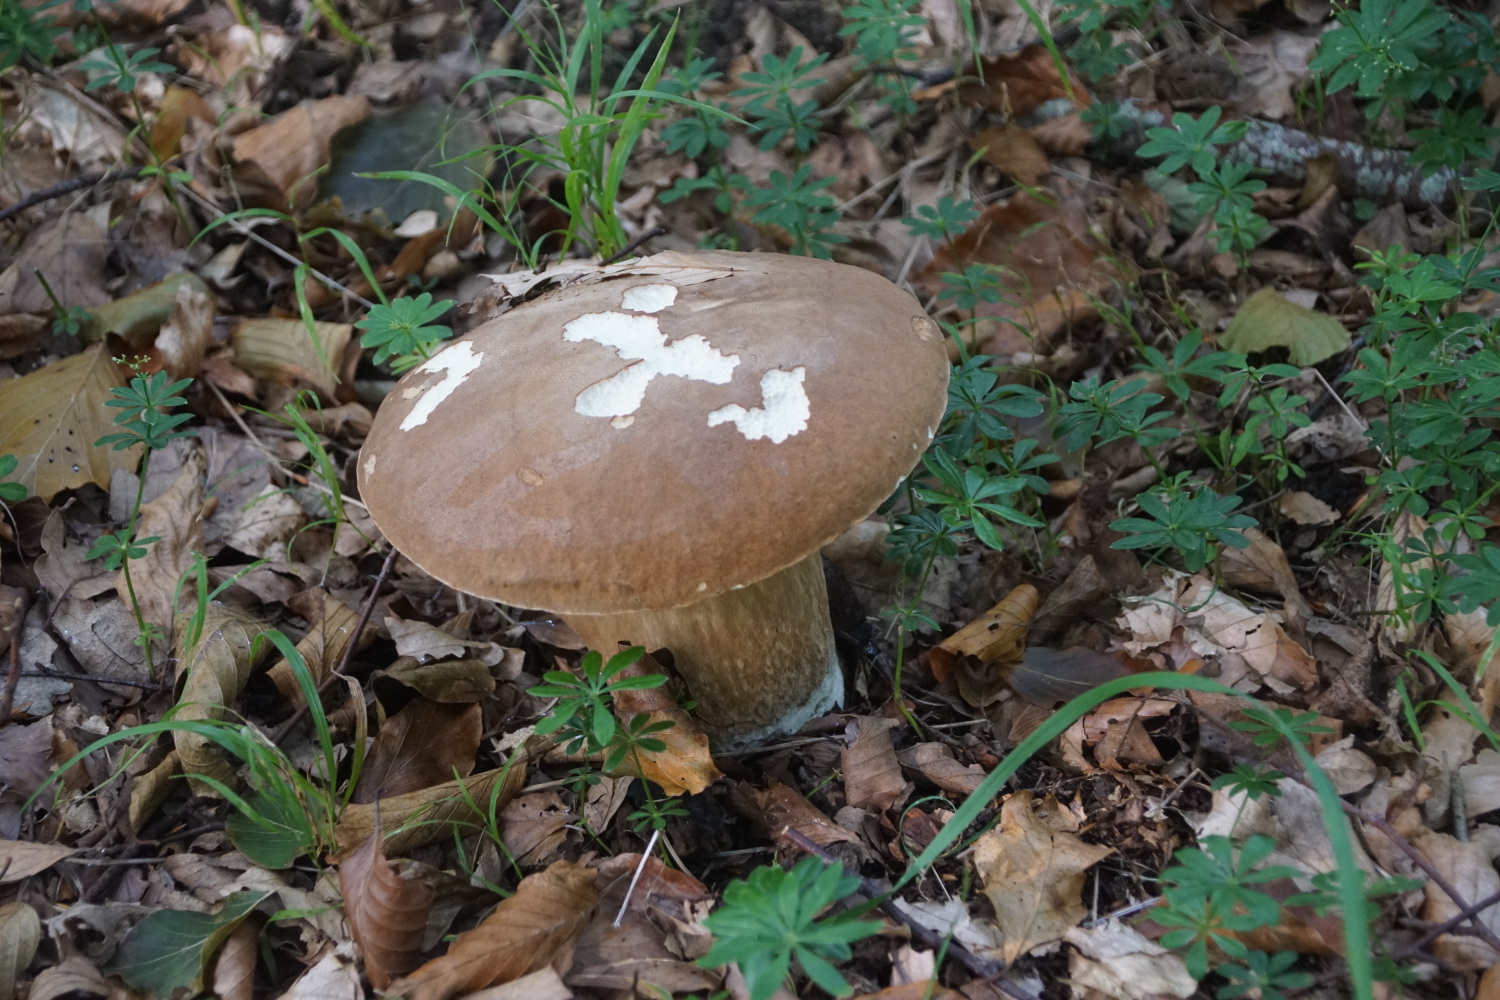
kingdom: Fungi
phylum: Basidiomycota
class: Agaricomycetes
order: Boletales
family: Boletaceae
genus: Boletus
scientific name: Boletus edulis
